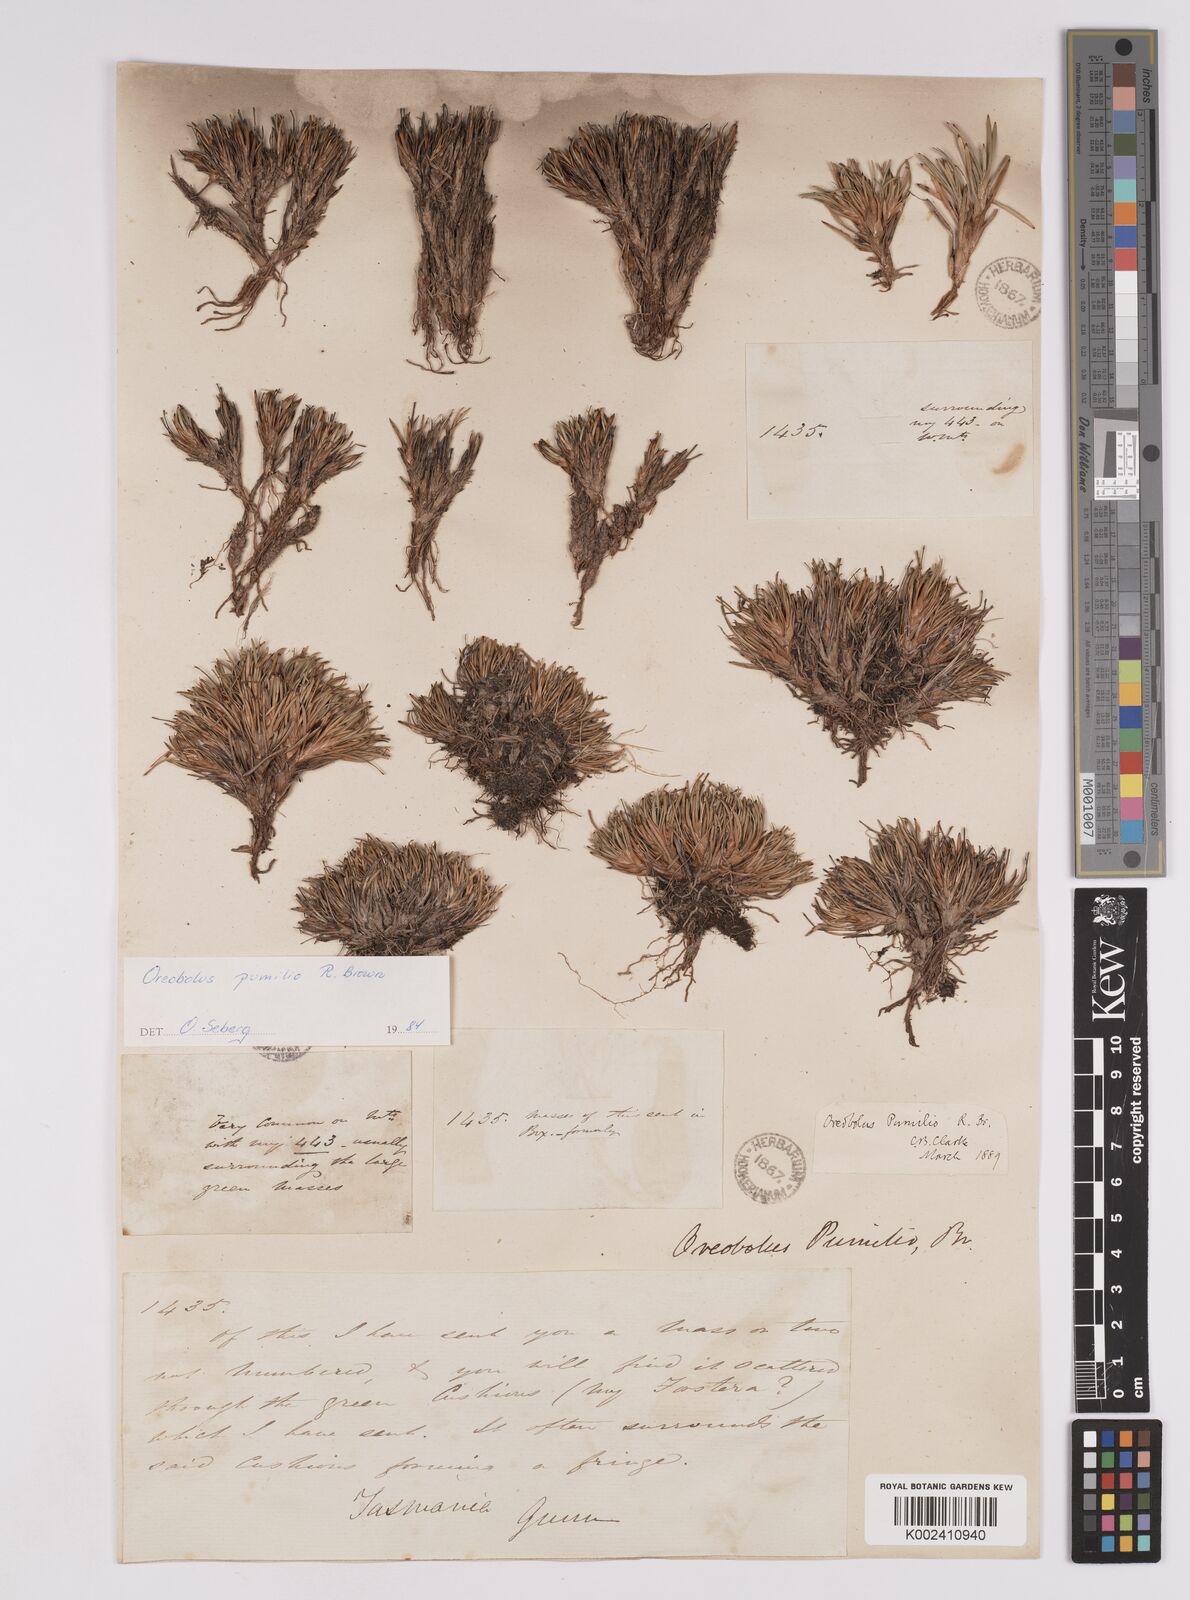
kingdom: Plantae
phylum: Tracheophyta
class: Liliopsida
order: Poales
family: Cyperaceae
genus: Oreobolus
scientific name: Oreobolus pumilio
